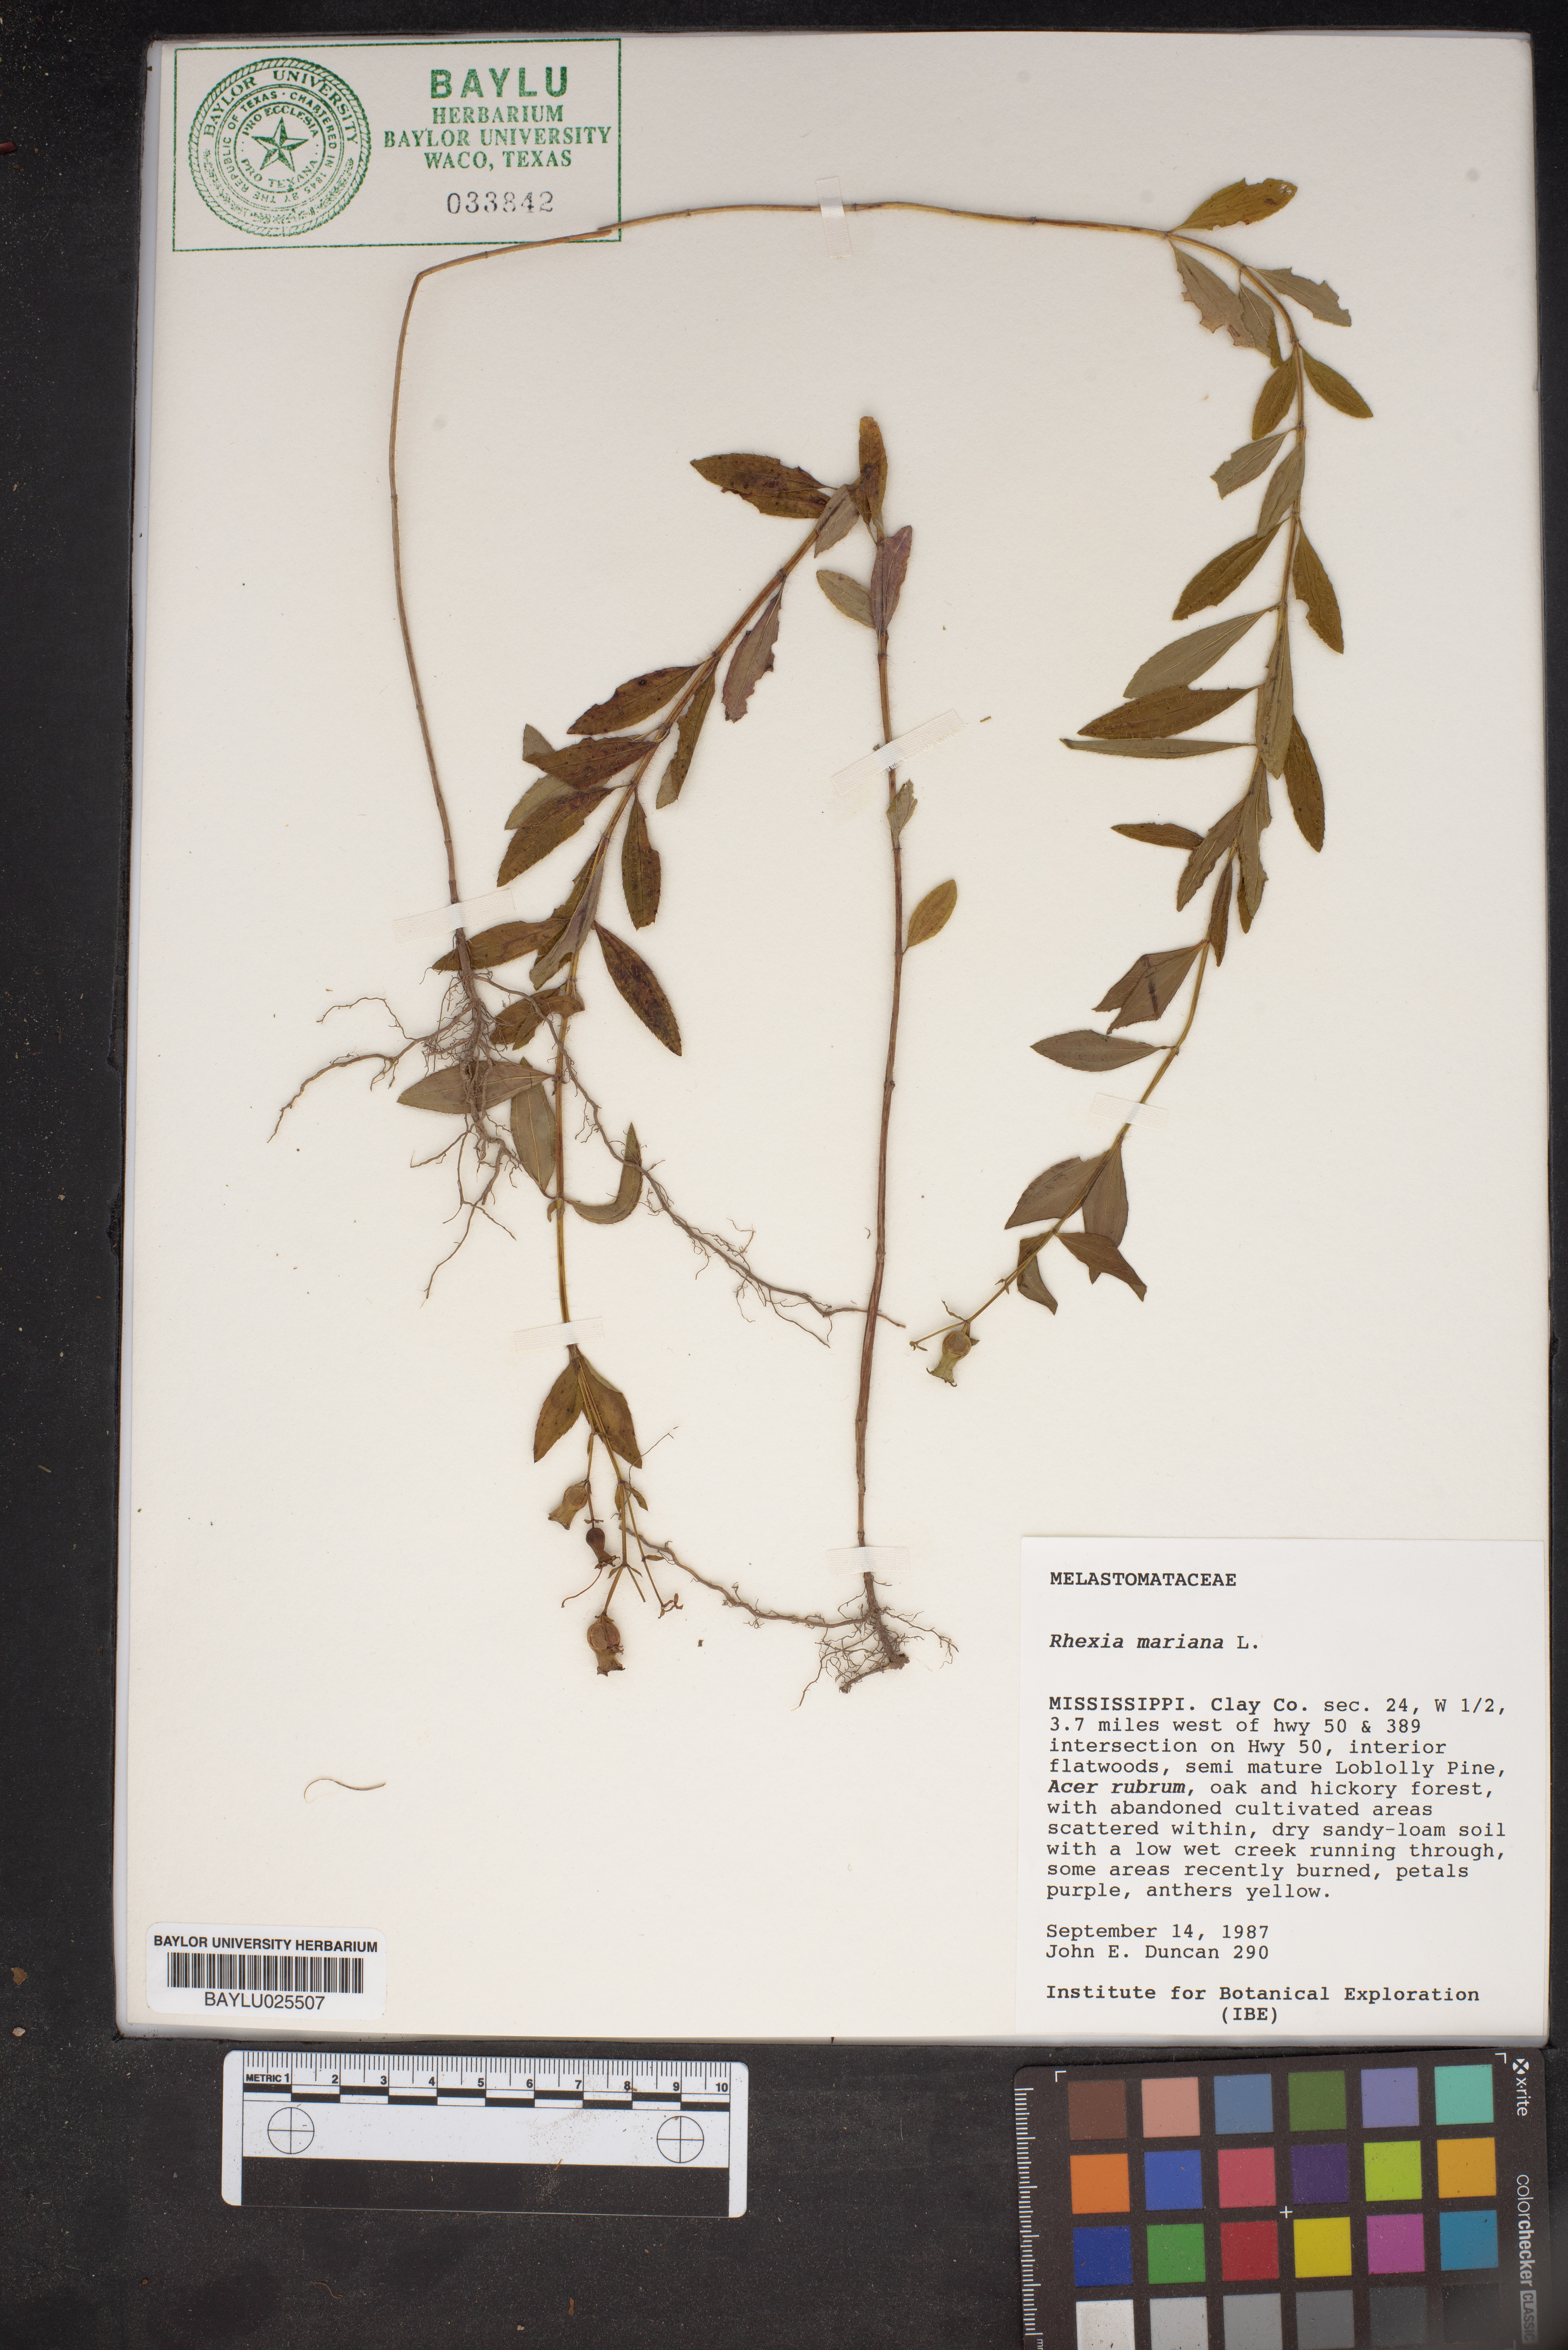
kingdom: Plantae
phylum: Tracheophyta
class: Magnoliopsida
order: Myrtales
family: Melastomataceae
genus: Rhexia
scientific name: Rhexia mariana
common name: Dull meadow-pitcher
